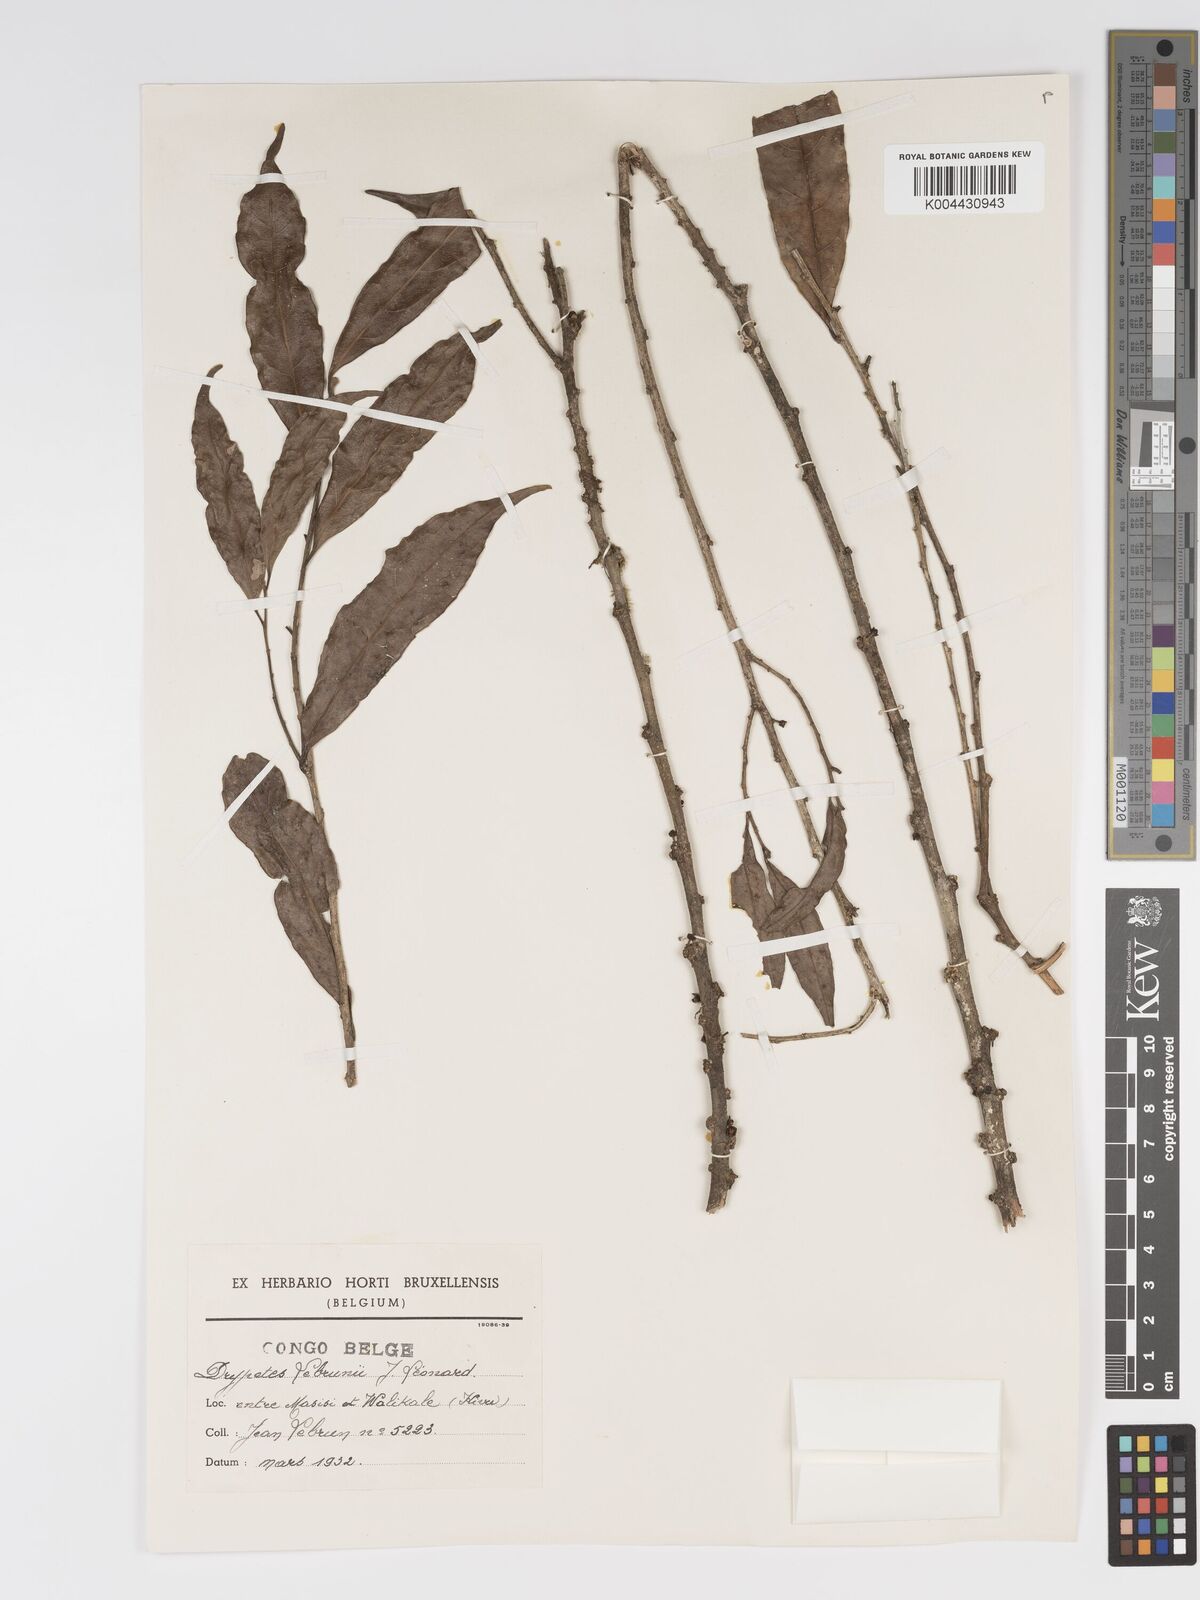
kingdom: Plantae
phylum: Tracheophyta
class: Magnoliopsida
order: Malpighiales
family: Putranjivaceae
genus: Drypetes
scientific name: Drypetes
